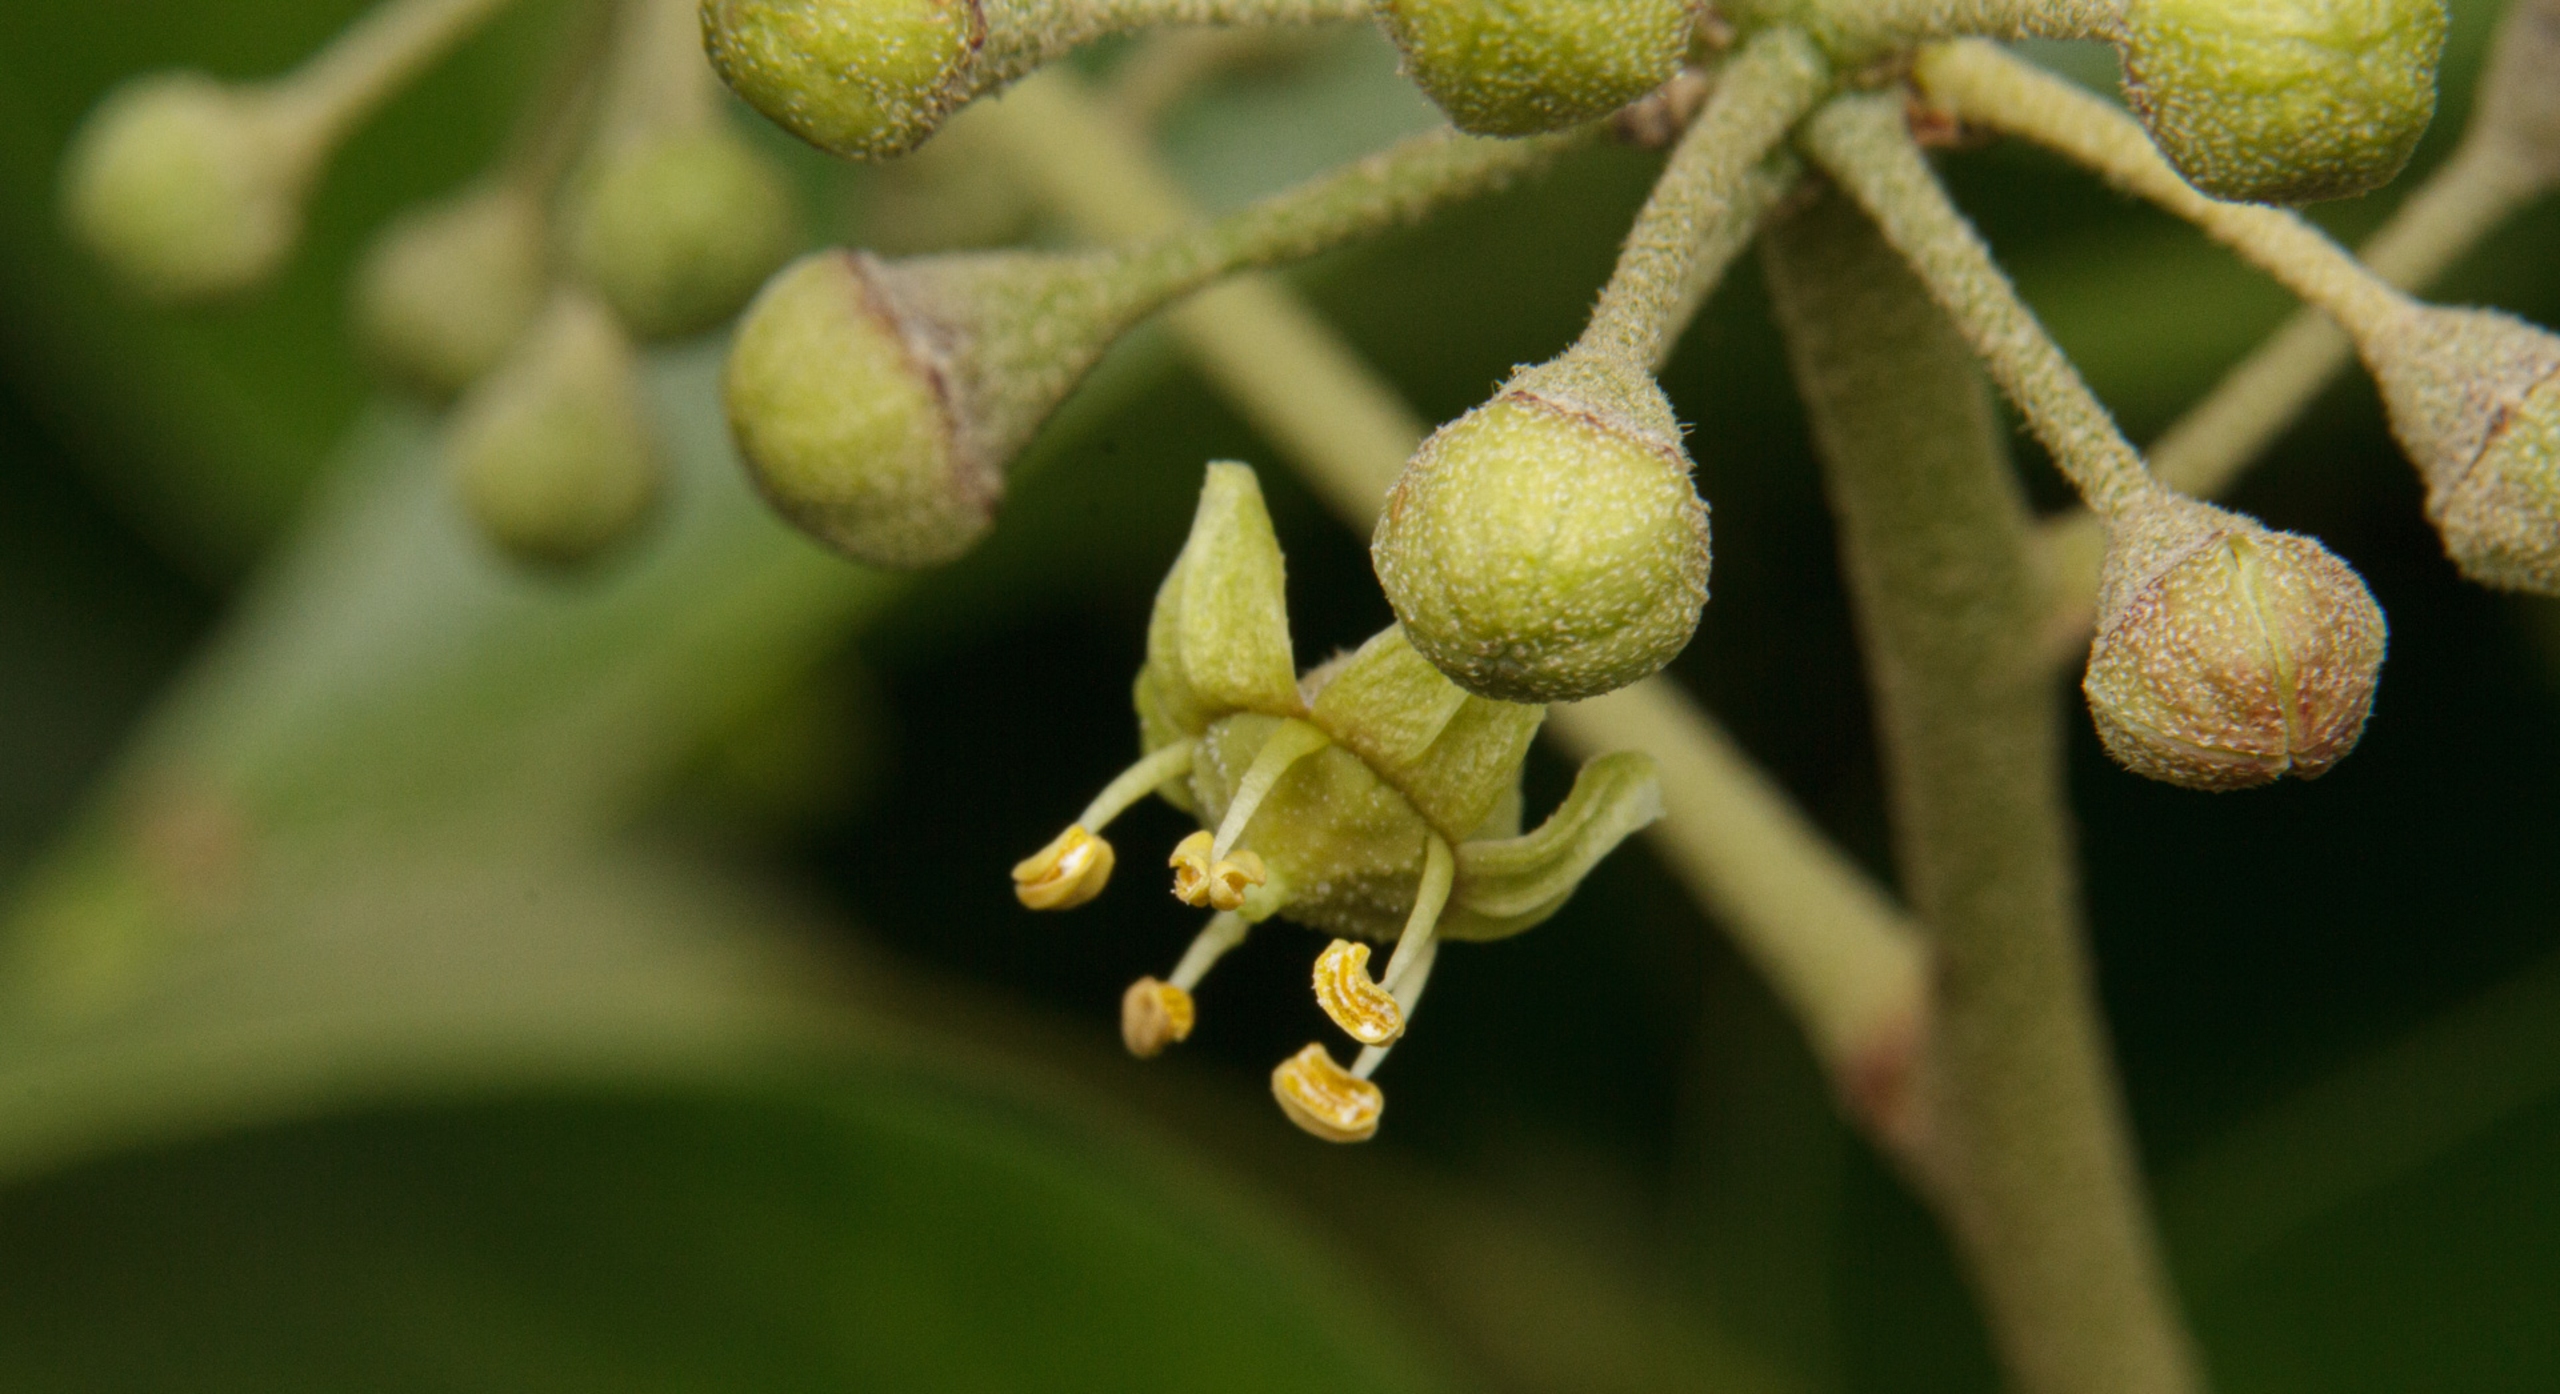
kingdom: Plantae
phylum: Tracheophyta
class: Magnoliopsida
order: Apiales
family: Araliaceae
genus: Hedera
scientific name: Hedera hibernica
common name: Irsk vedbend
